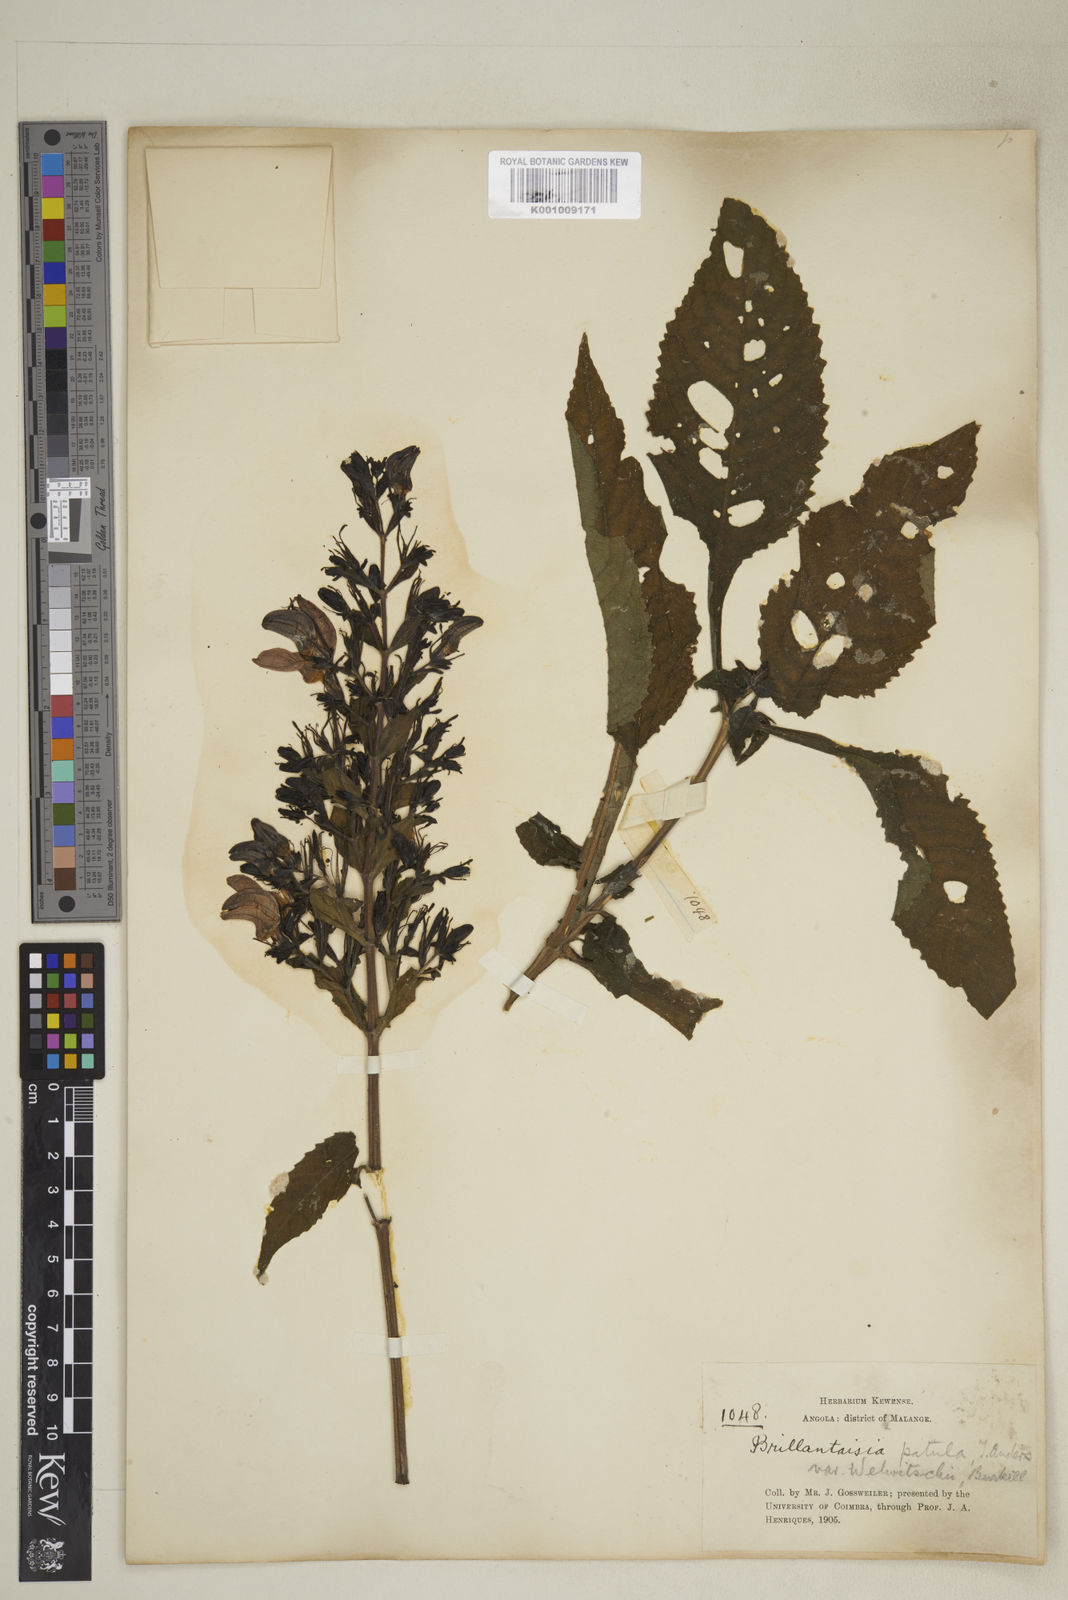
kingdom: Plantae
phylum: Tracheophyta
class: Magnoliopsida
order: Lamiales
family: Acanthaceae
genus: Brillantaisia
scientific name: Brillantaisia owariensis
